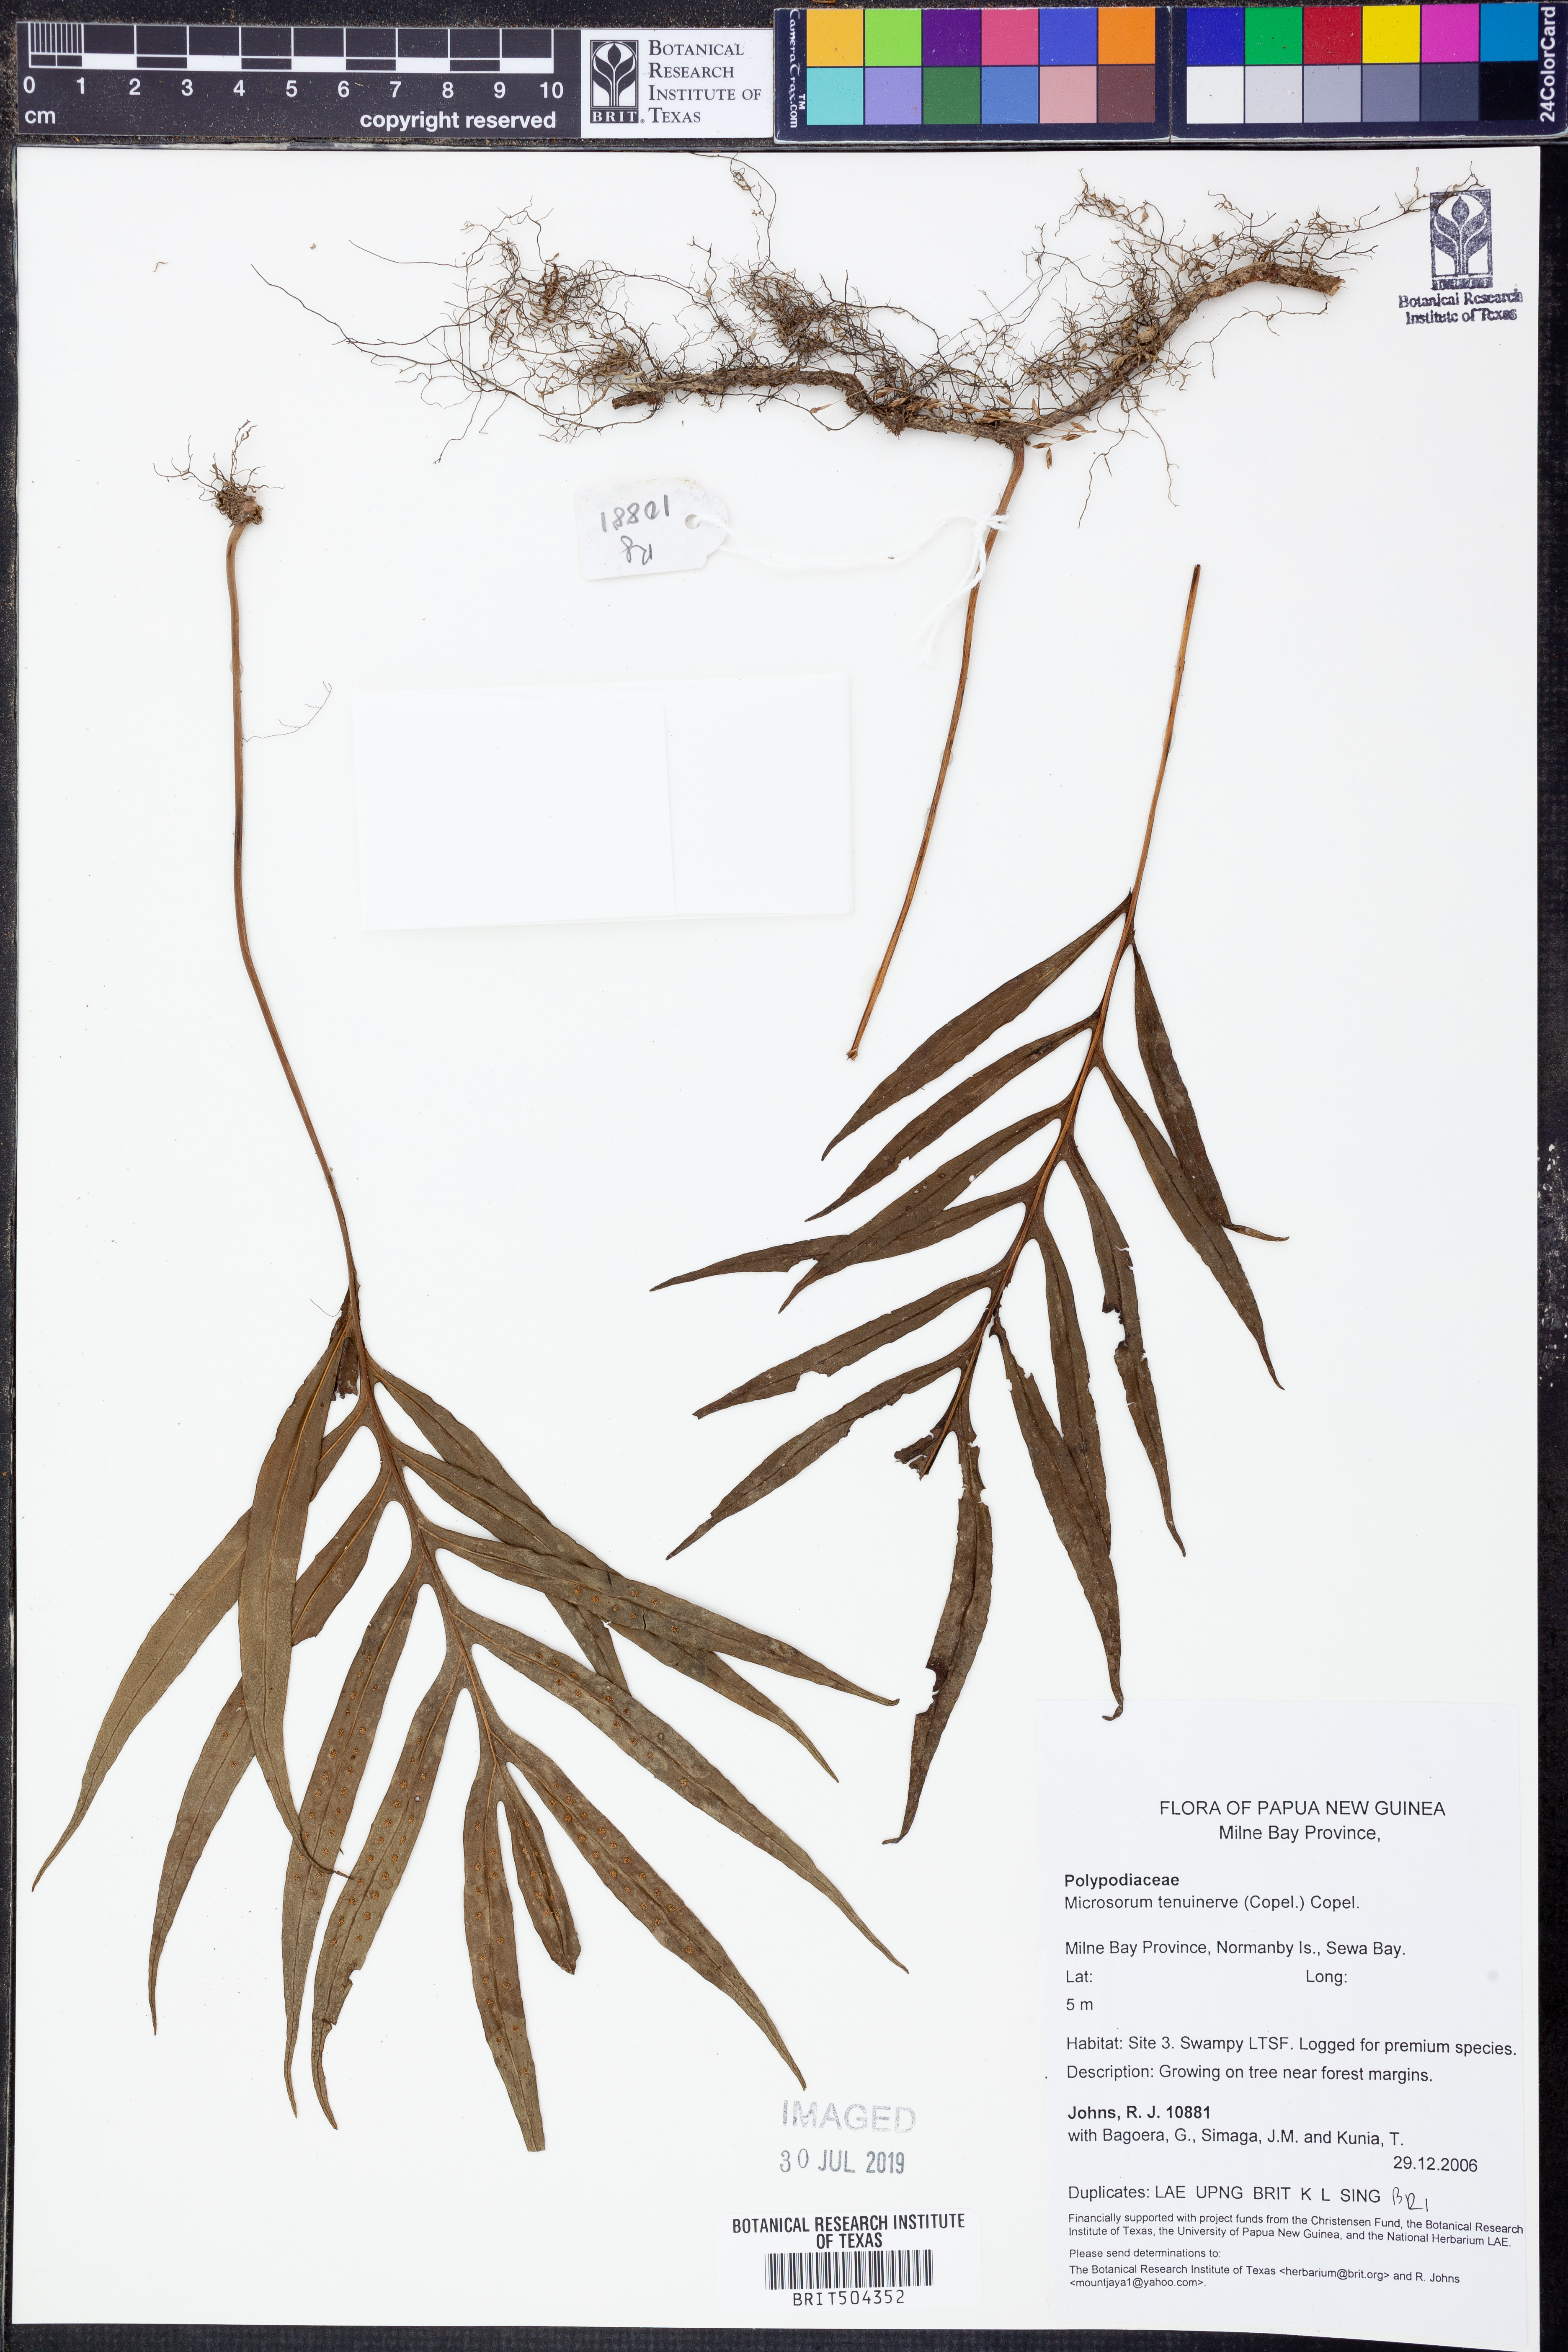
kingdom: Plantae
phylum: Tracheophyta
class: Polypodiopsida
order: Polypodiales
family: Polypodiaceae
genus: Microsorum
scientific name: Microsorum sibomense
